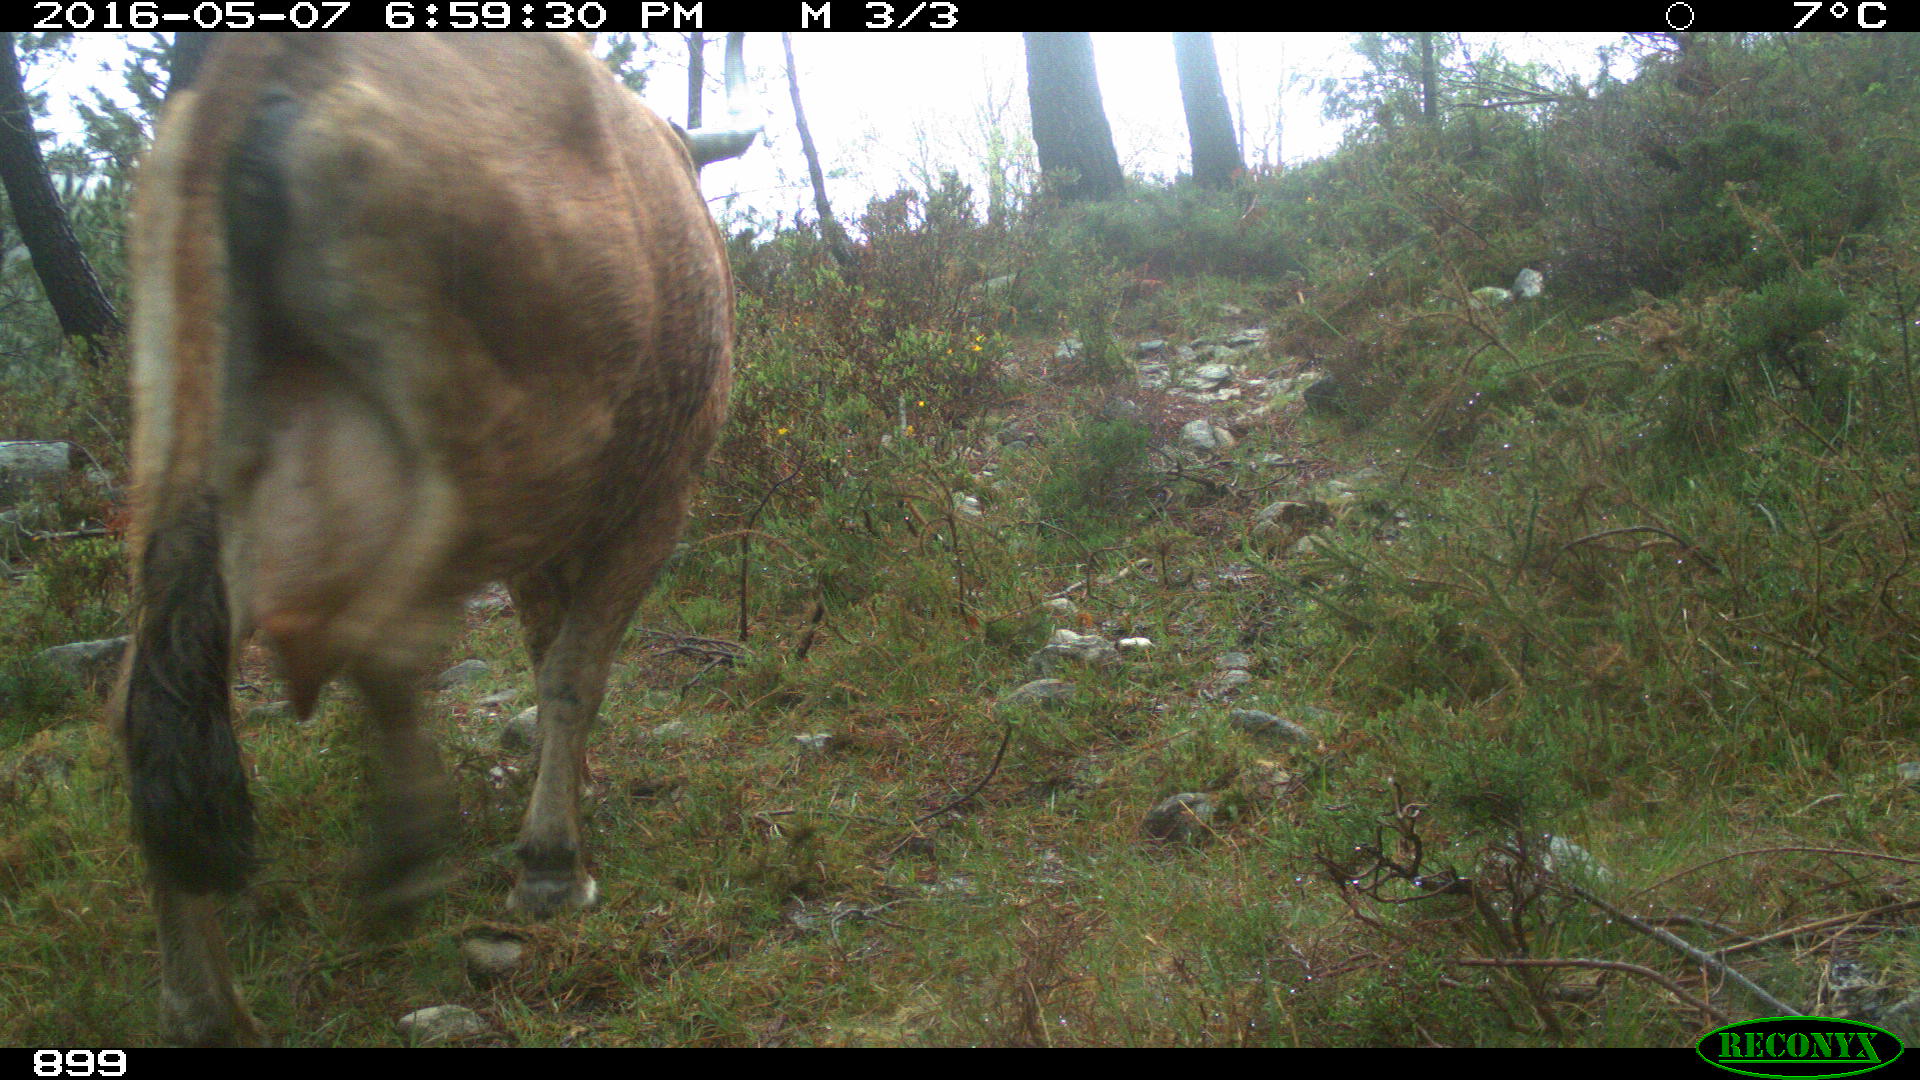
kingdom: Animalia
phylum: Chordata
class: Mammalia
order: Artiodactyla
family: Bovidae
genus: Bos
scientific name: Bos taurus
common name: Domesticated cattle
